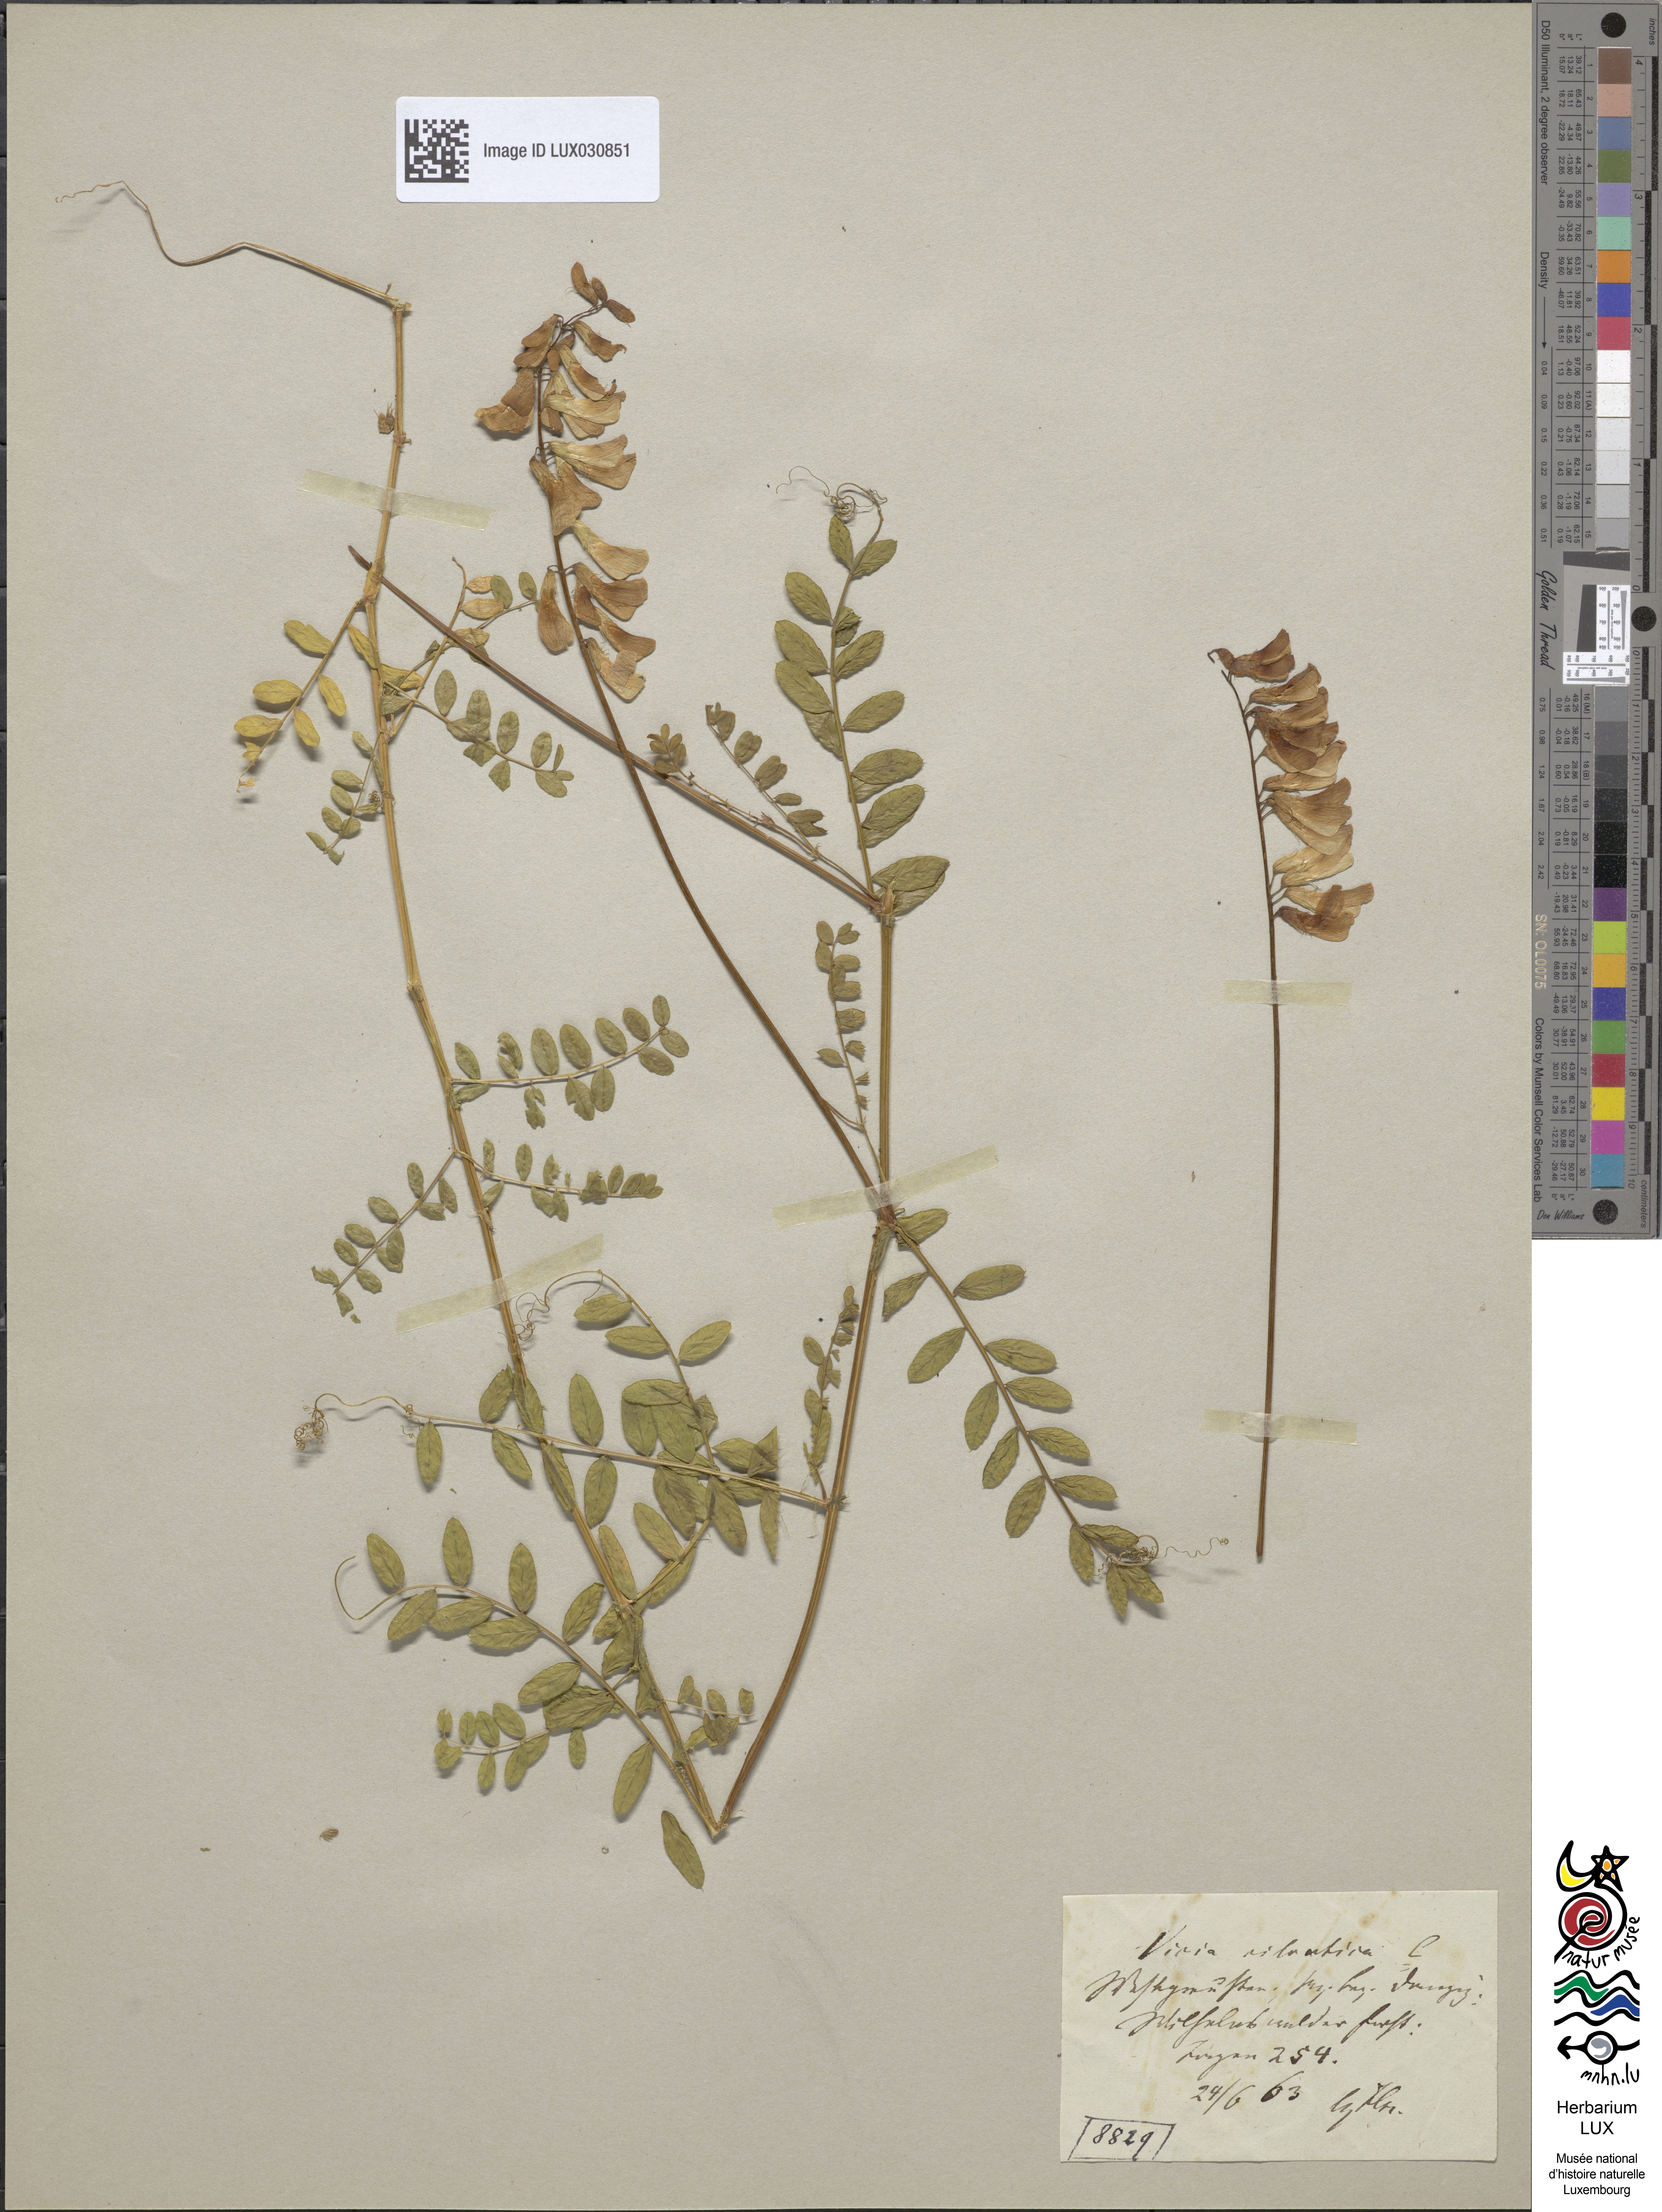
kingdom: Plantae
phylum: Tracheophyta
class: Magnoliopsida
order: Fabales
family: Fabaceae
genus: Vicia
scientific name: Vicia sylvatica
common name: Wood vetch
